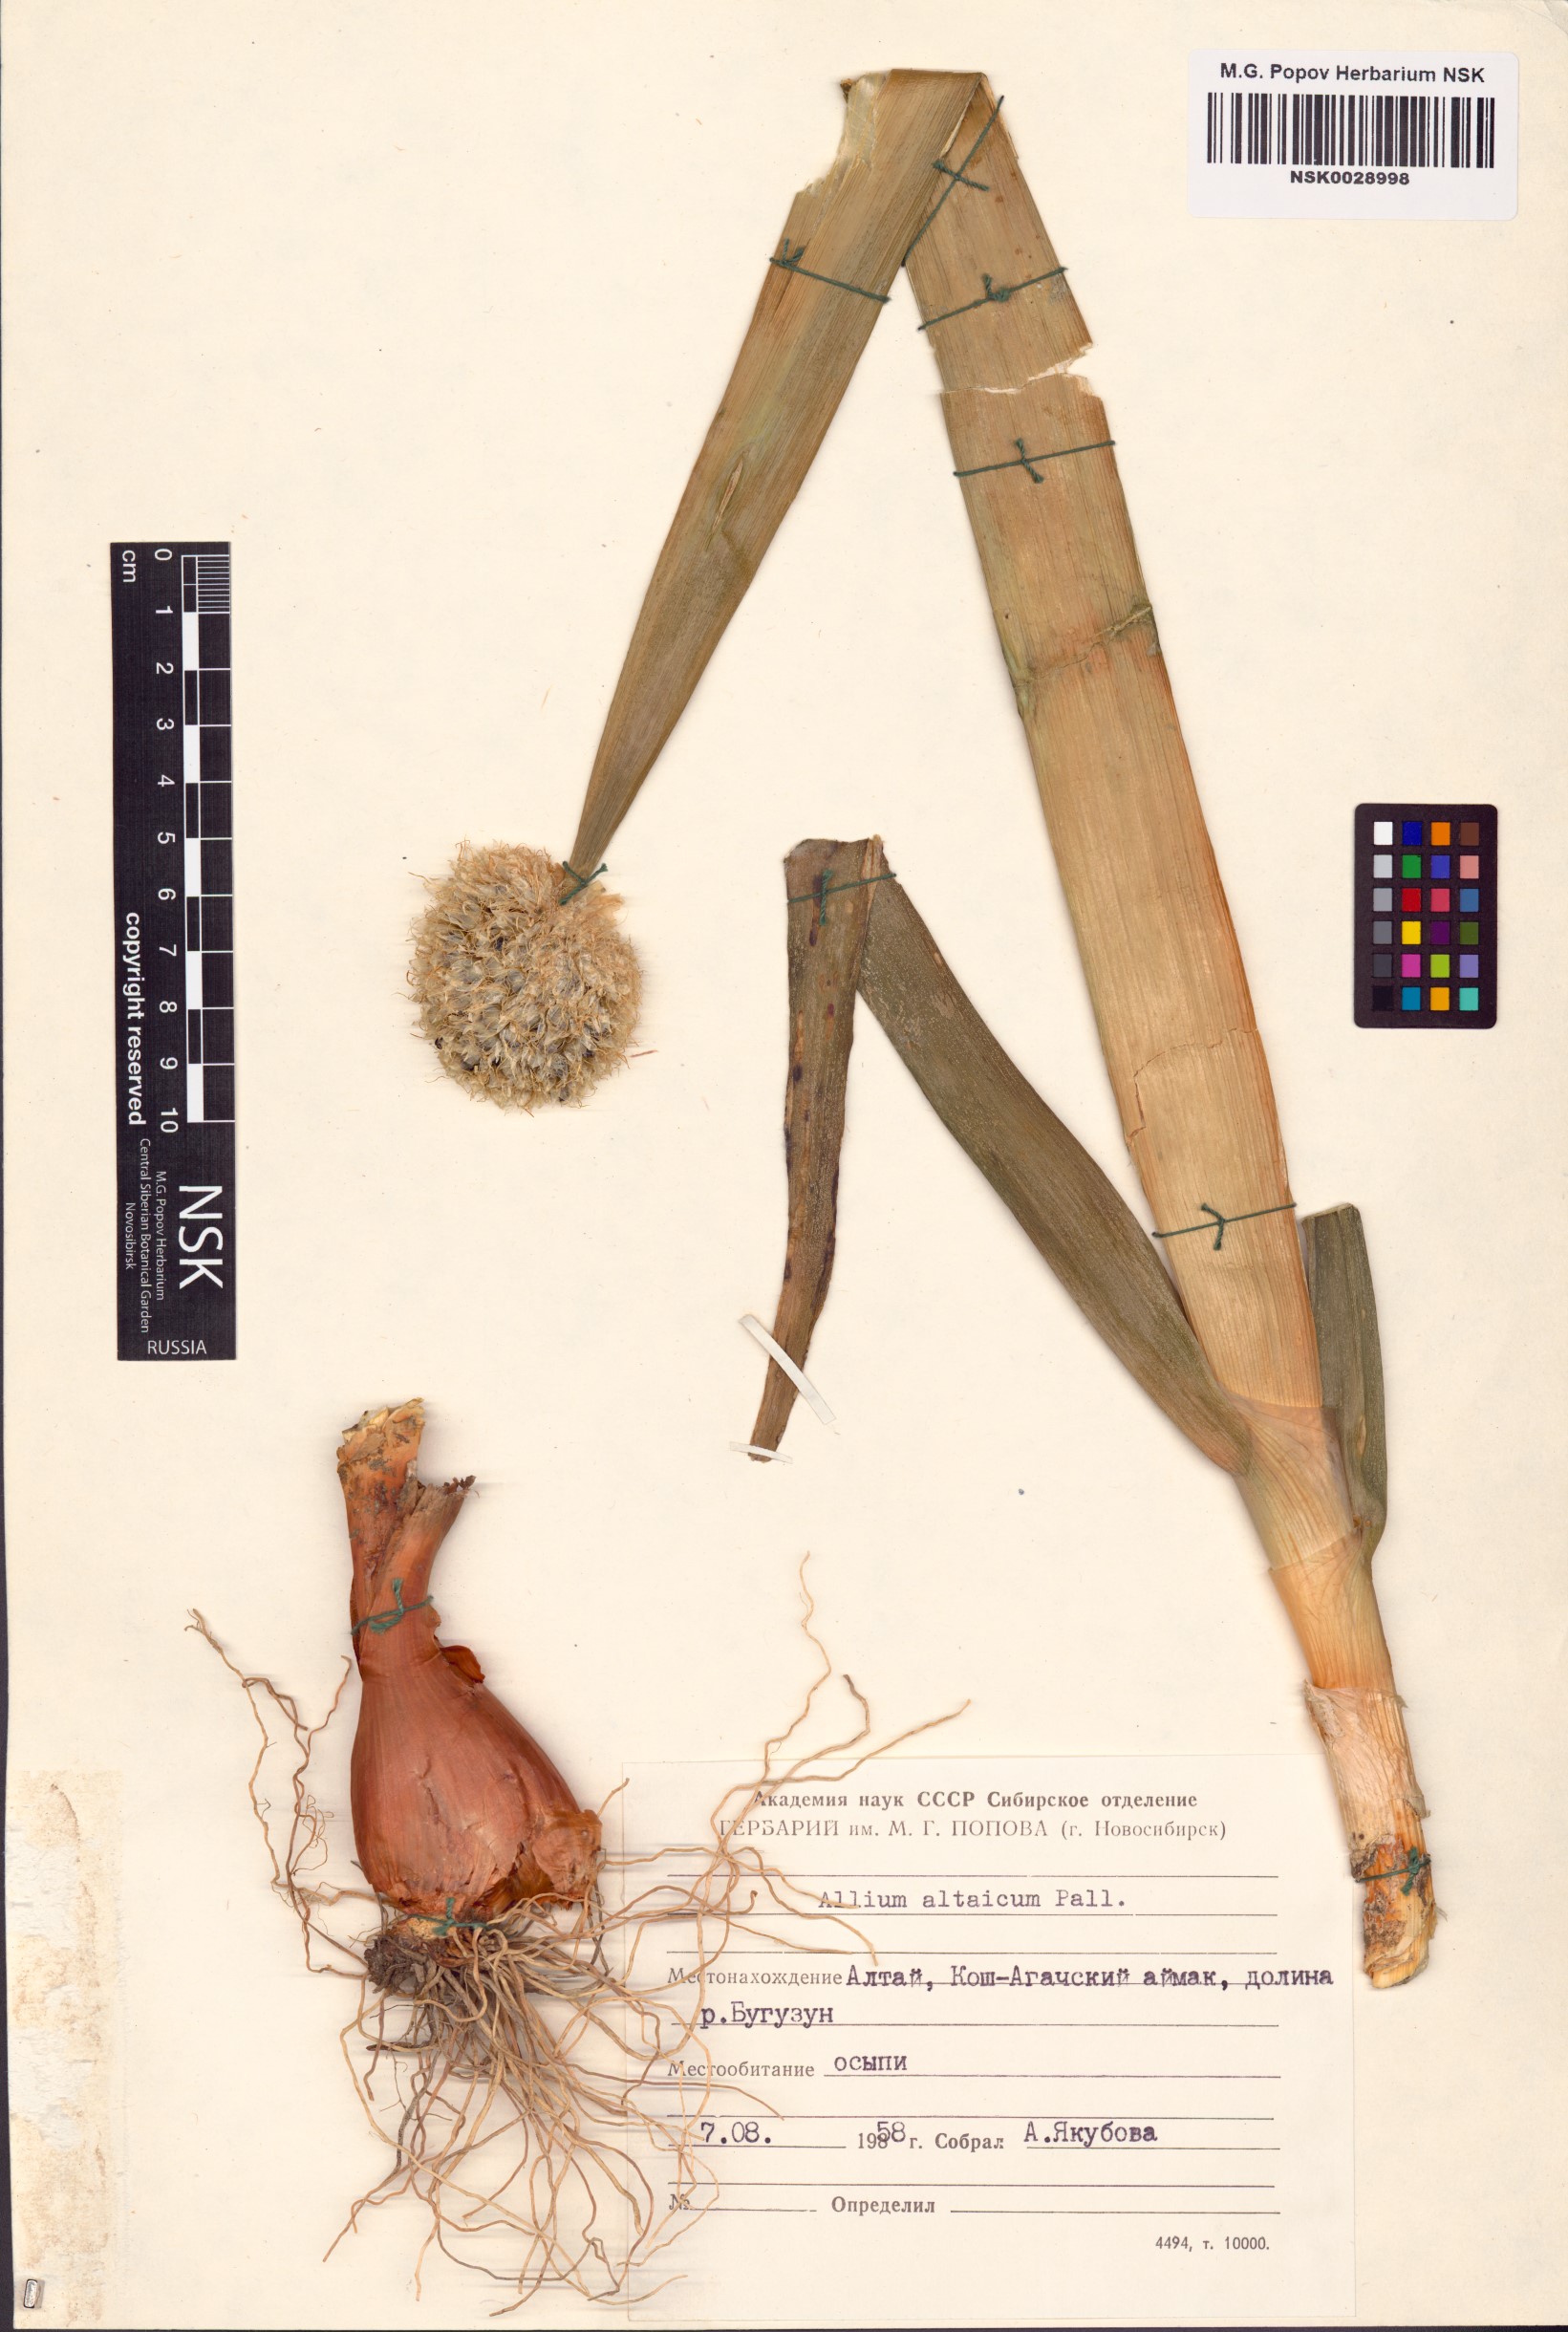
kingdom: Plantae
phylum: Tracheophyta
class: Liliopsida
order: Asparagales
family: Amaryllidaceae
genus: Allium
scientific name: Allium altaicum
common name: Altai onion
